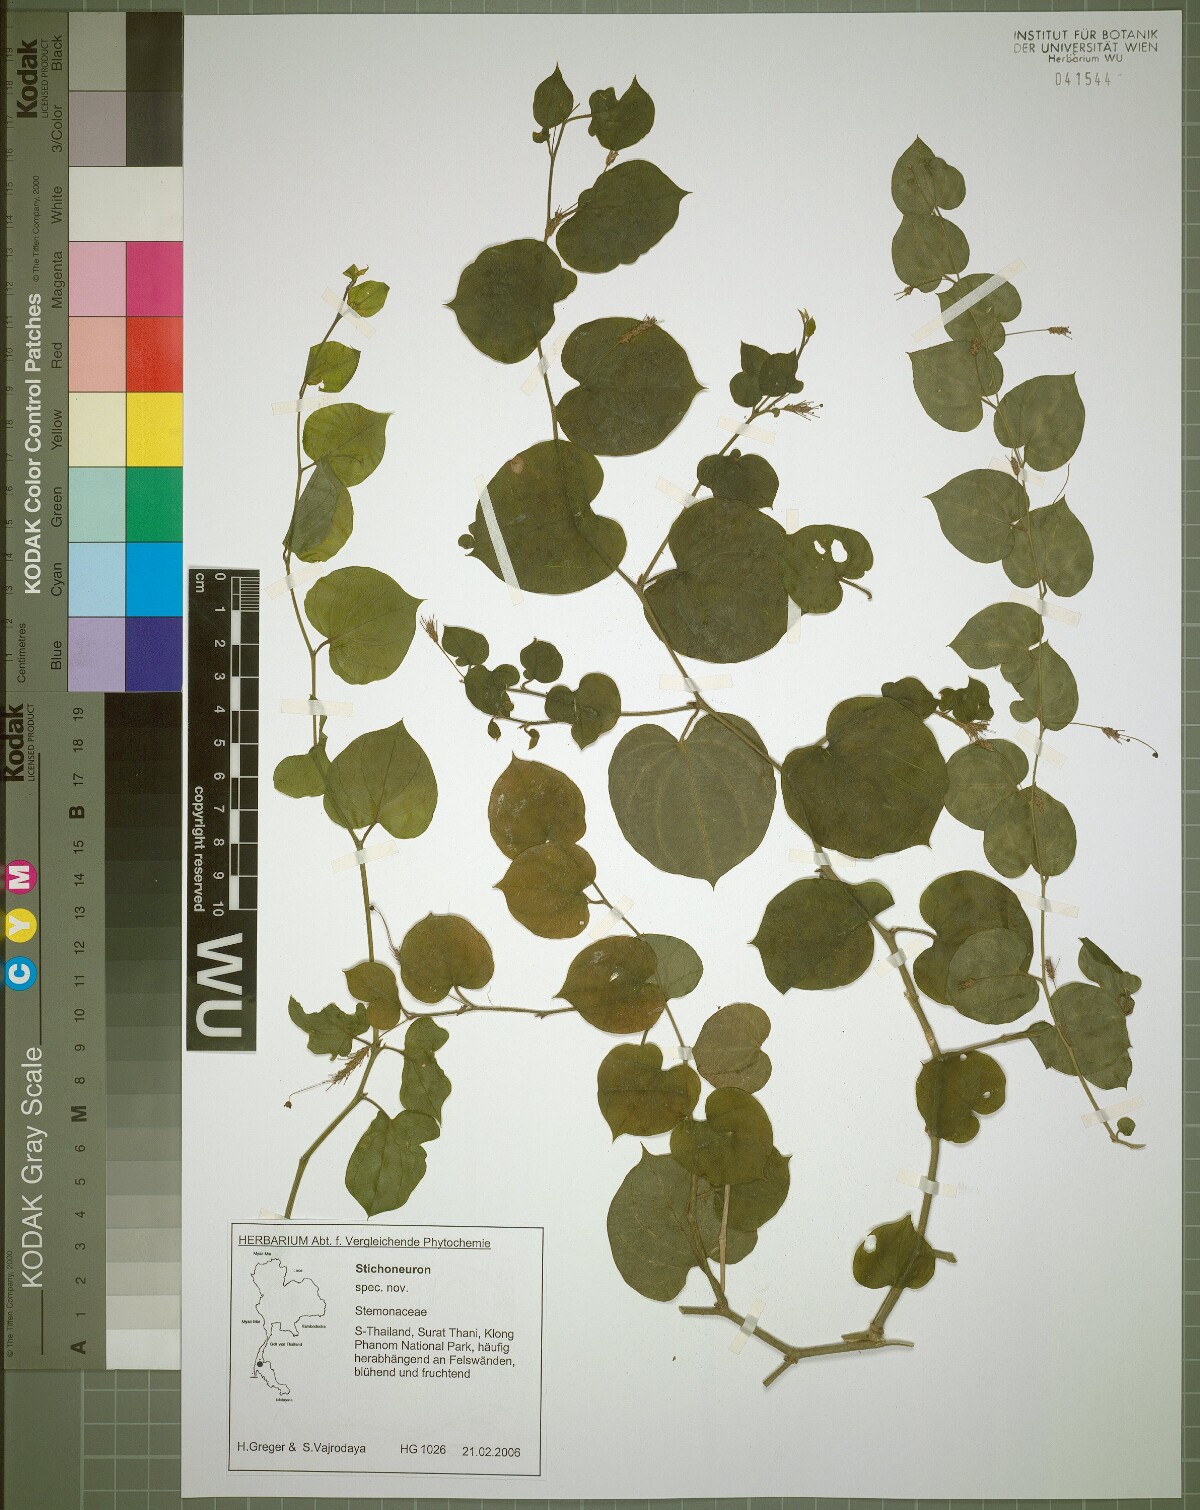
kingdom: Plantae
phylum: Tracheophyta
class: Liliopsida
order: Pandanales
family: Stemonaceae
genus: Stichoneuron
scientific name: Stichoneuron calcicola
